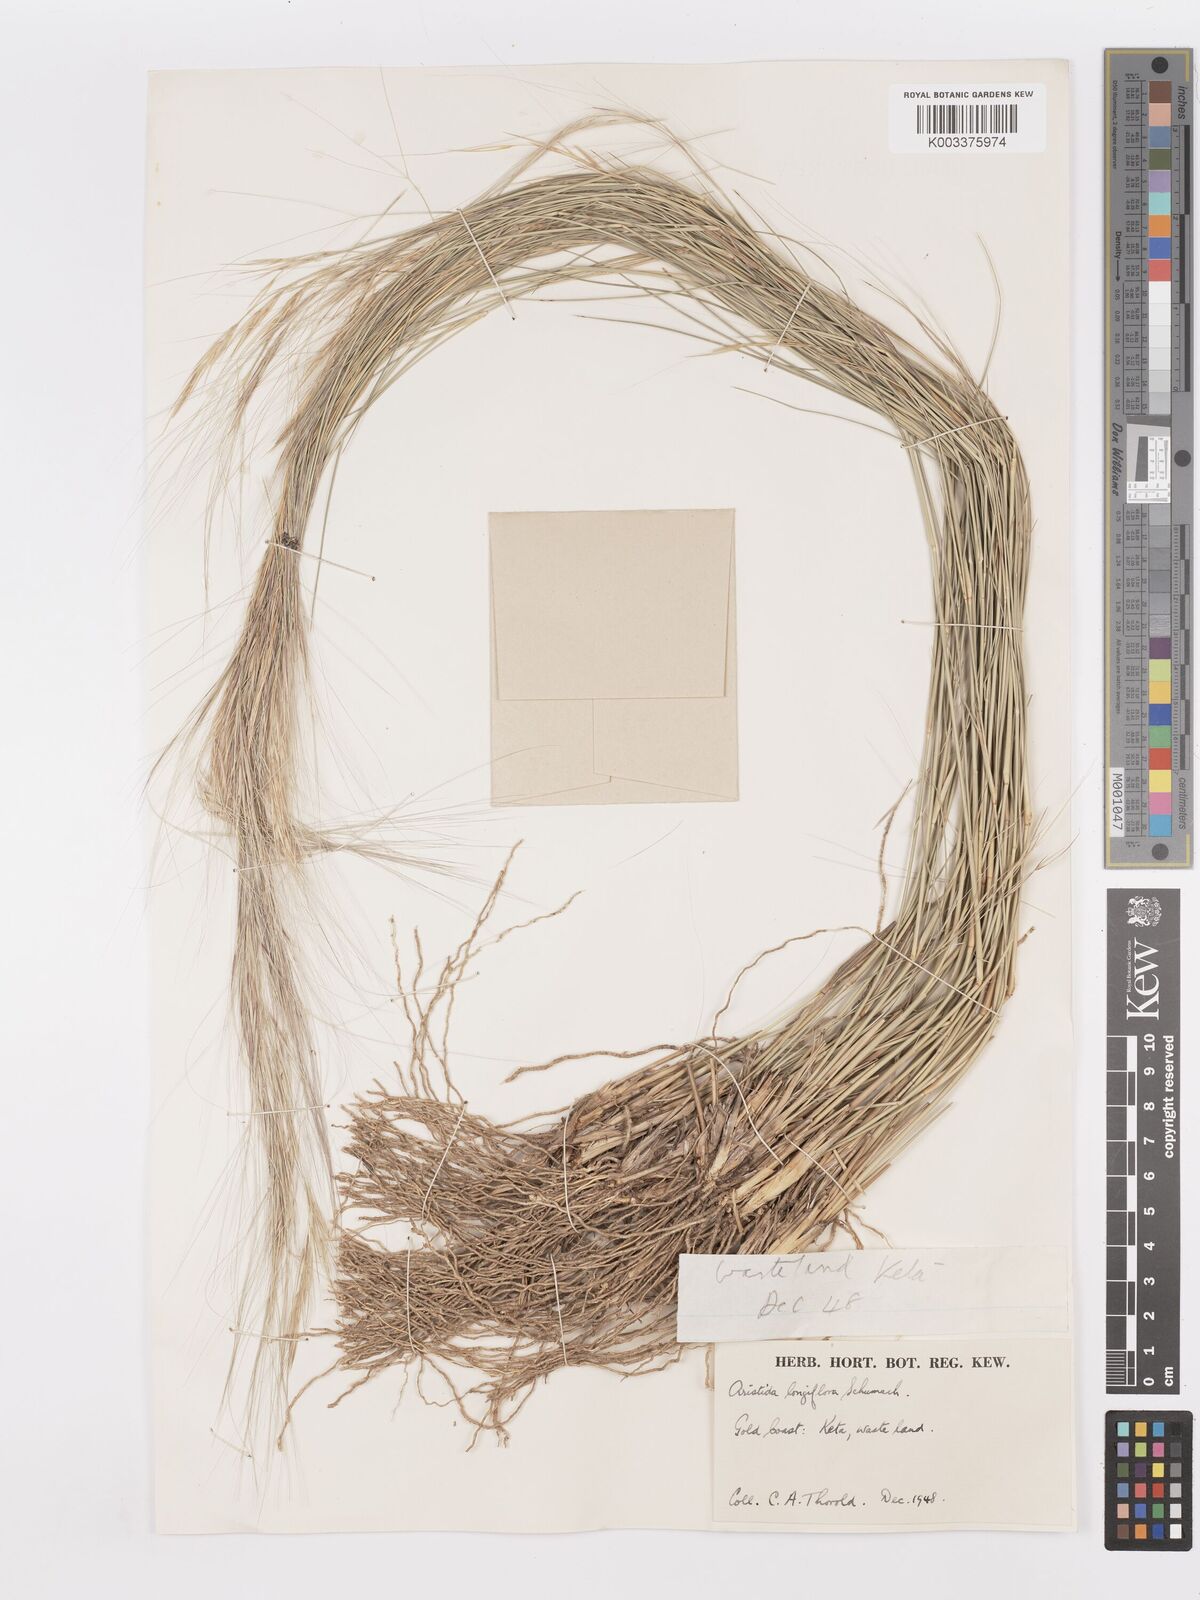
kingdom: Plantae
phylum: Tracheophyta
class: Liliopsida
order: Poales
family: Poaceae
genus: Aristida
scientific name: Aristida sieberiana
